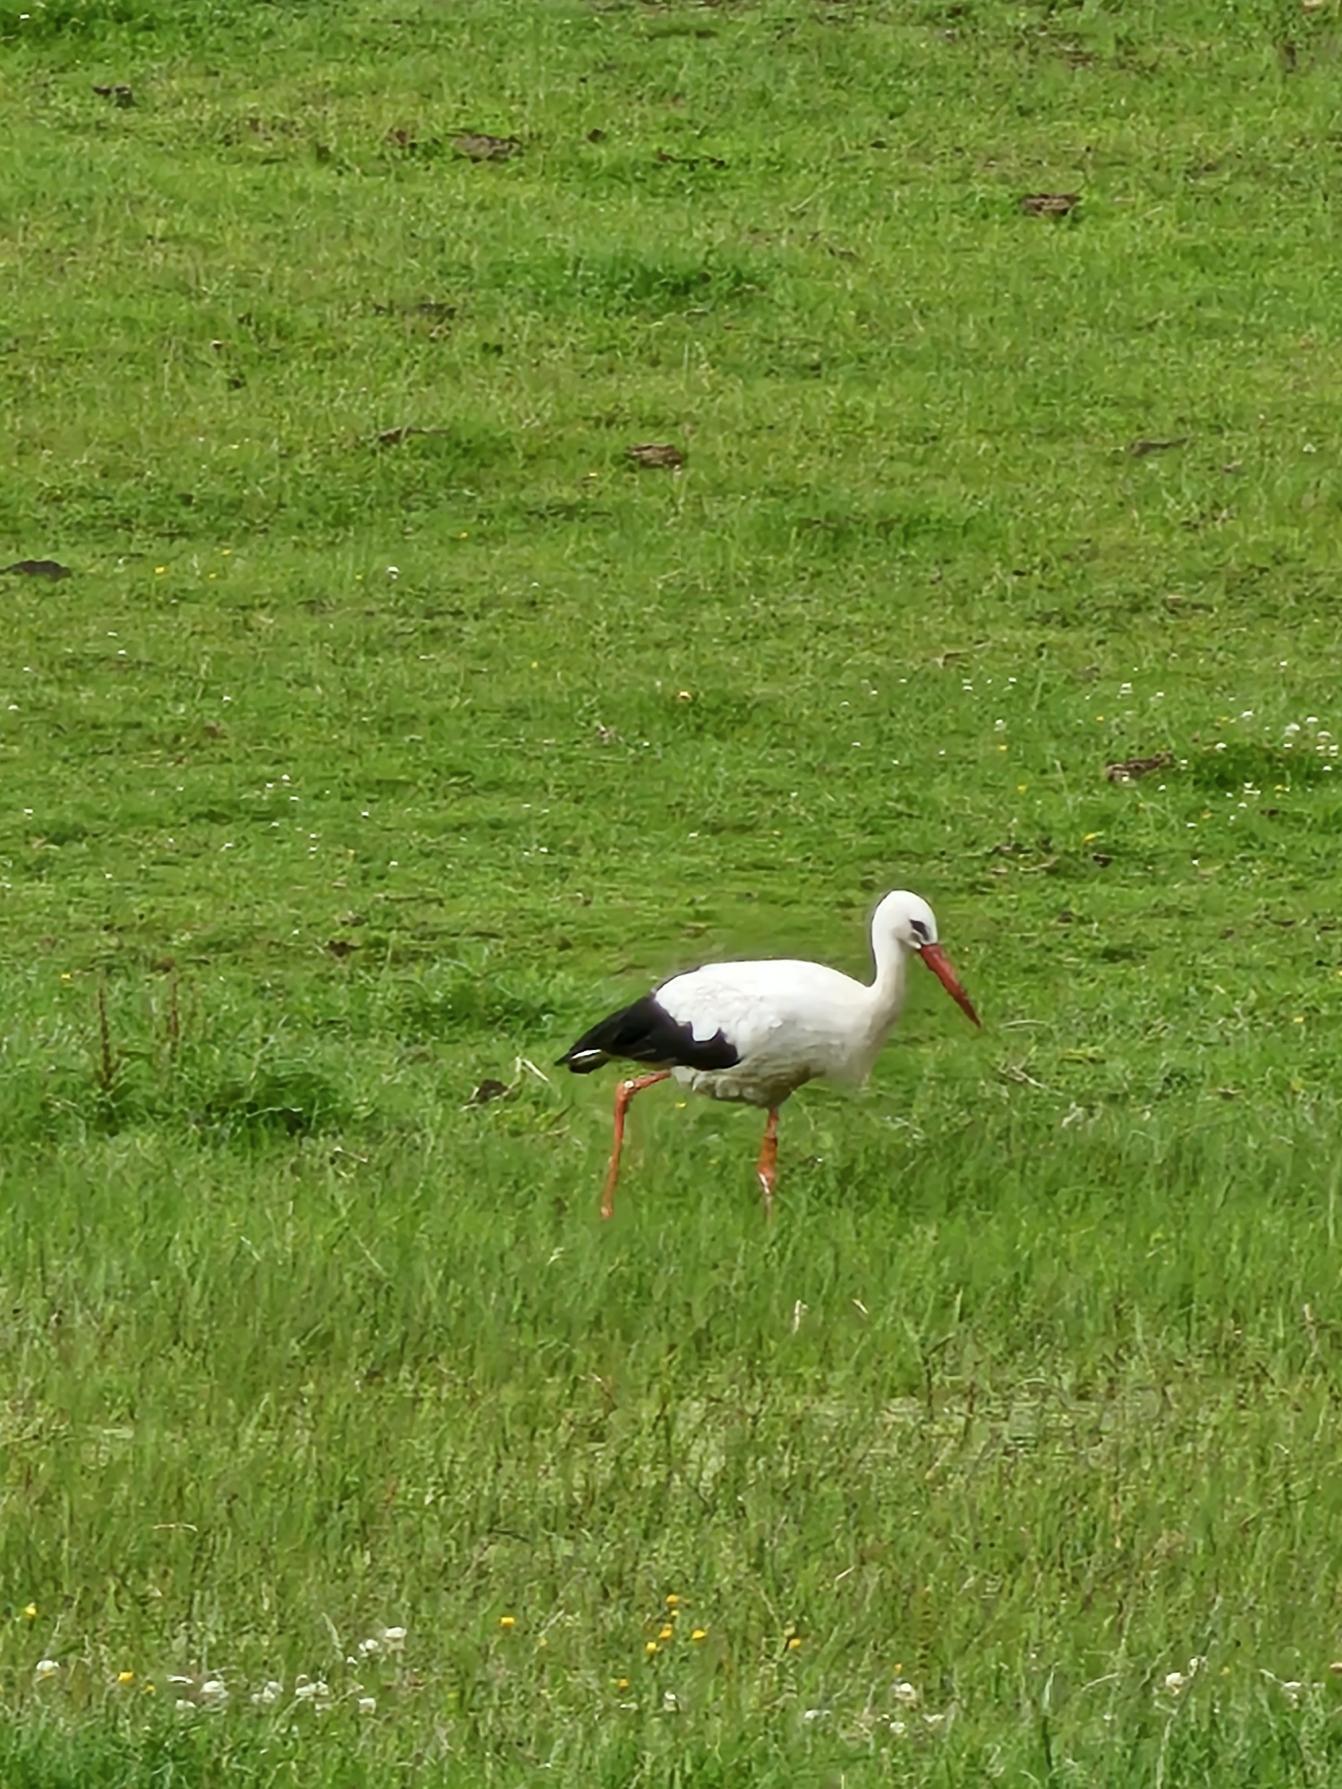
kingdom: Animalia
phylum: Chordata
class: Aves
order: Ciconiiformes
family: Ciconiidae
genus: Ciconia
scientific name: Ciconia ciconia
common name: Hvid stork
